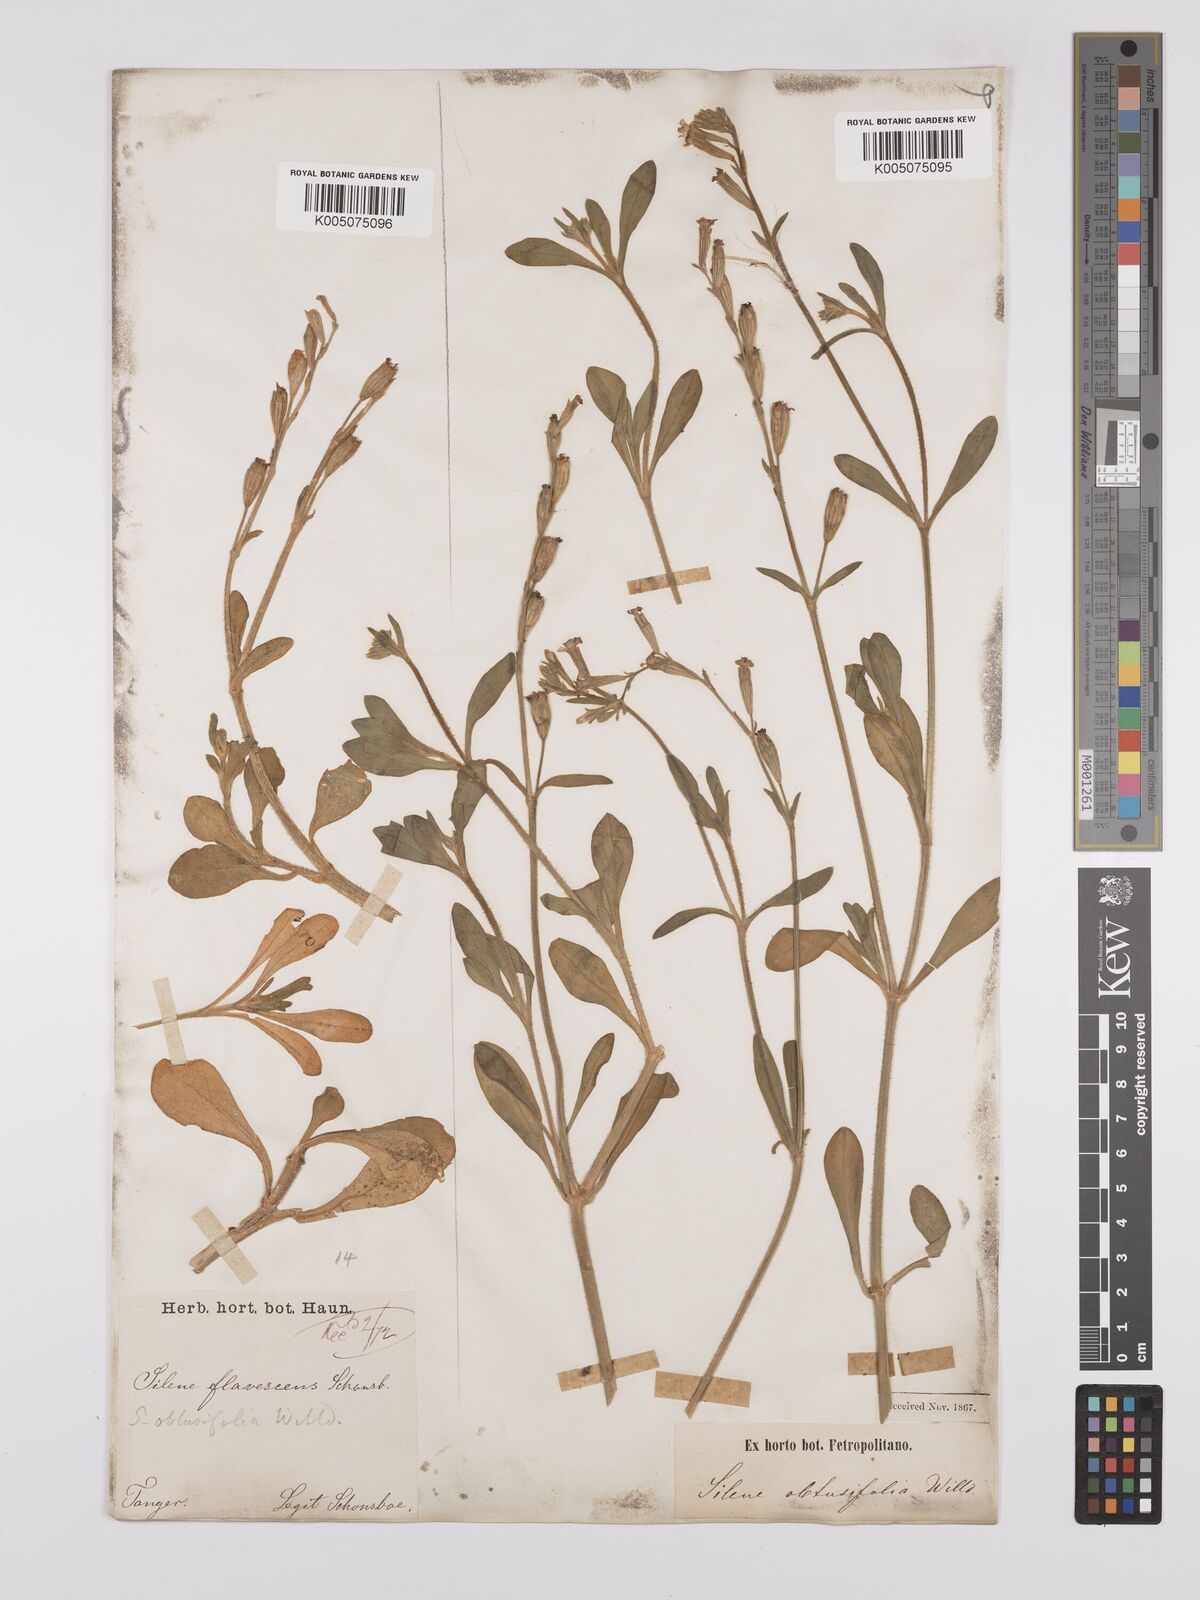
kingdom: Plantae
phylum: Tracheophyta
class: Magnoliopsida
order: Caryophyllales
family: Caryophyllaceae
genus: Silene
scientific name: Silene obtusifolia
